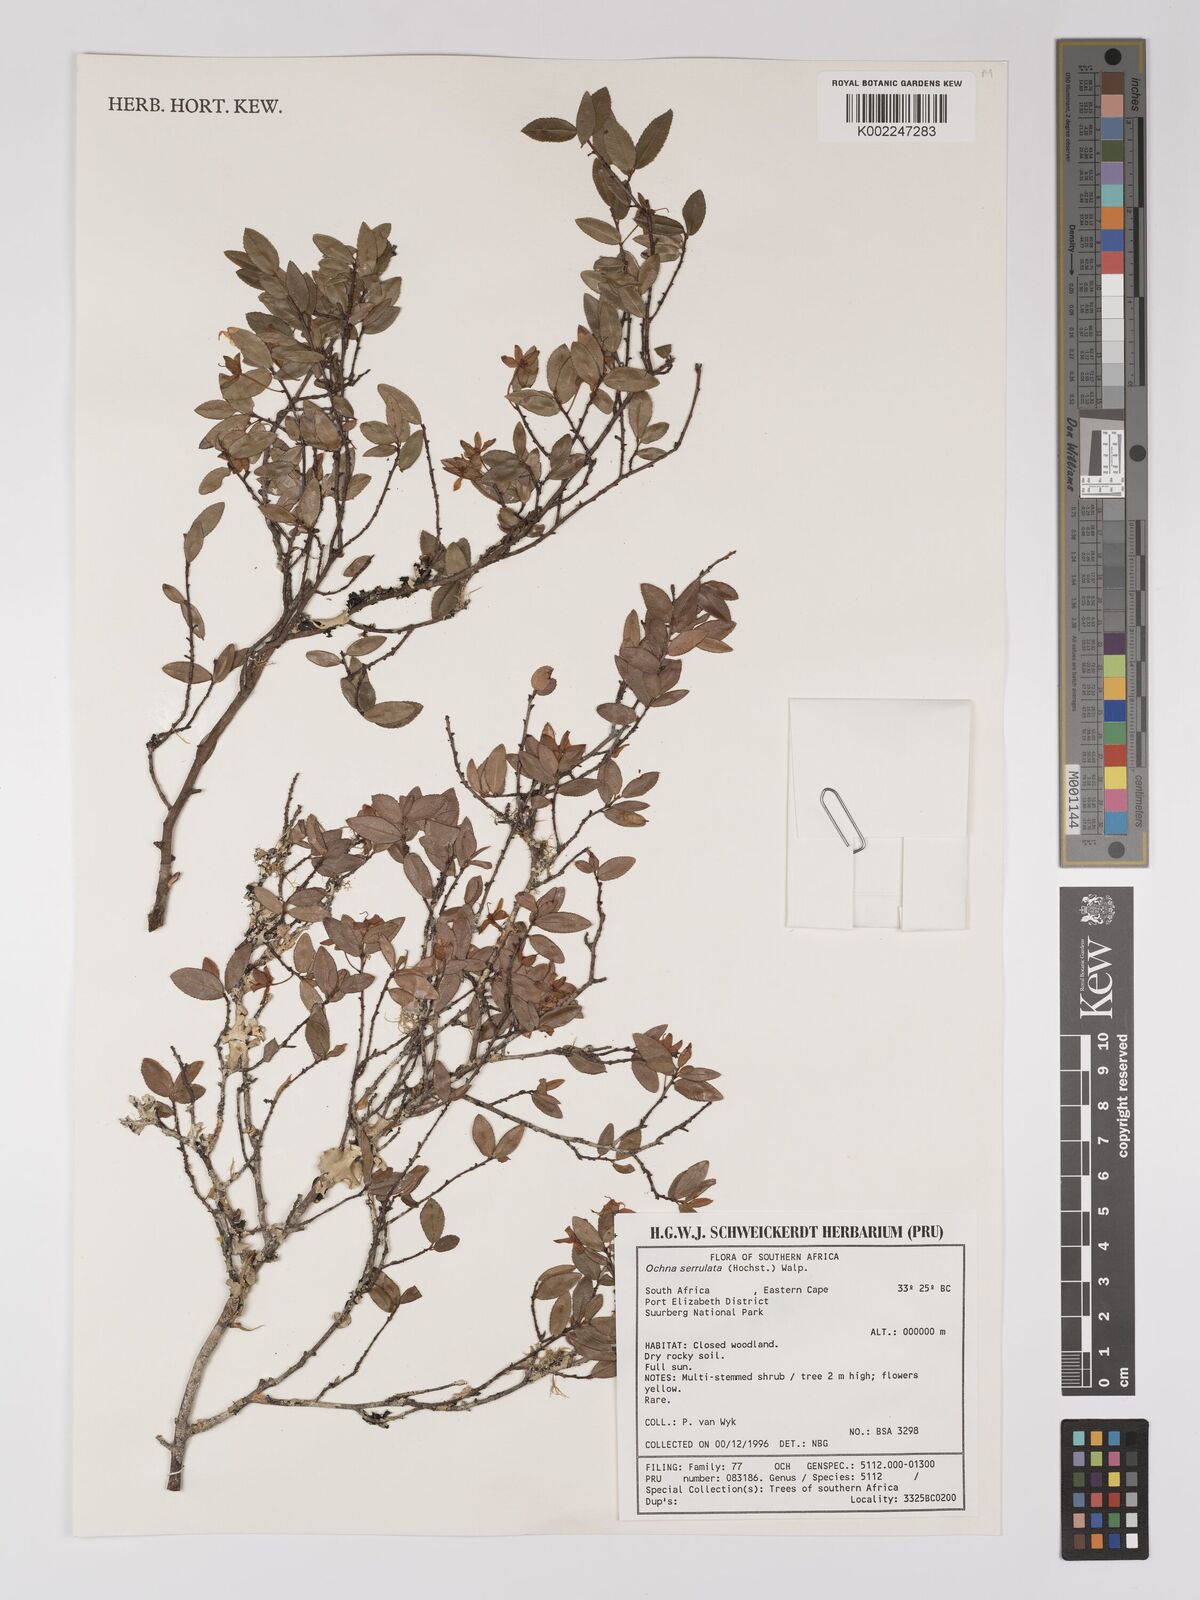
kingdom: Plantae
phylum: Tracheophyta
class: Magnoliopsida
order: Malpighiales
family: Ochnaceae
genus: Ochna
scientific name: Ochna gamostigmata
